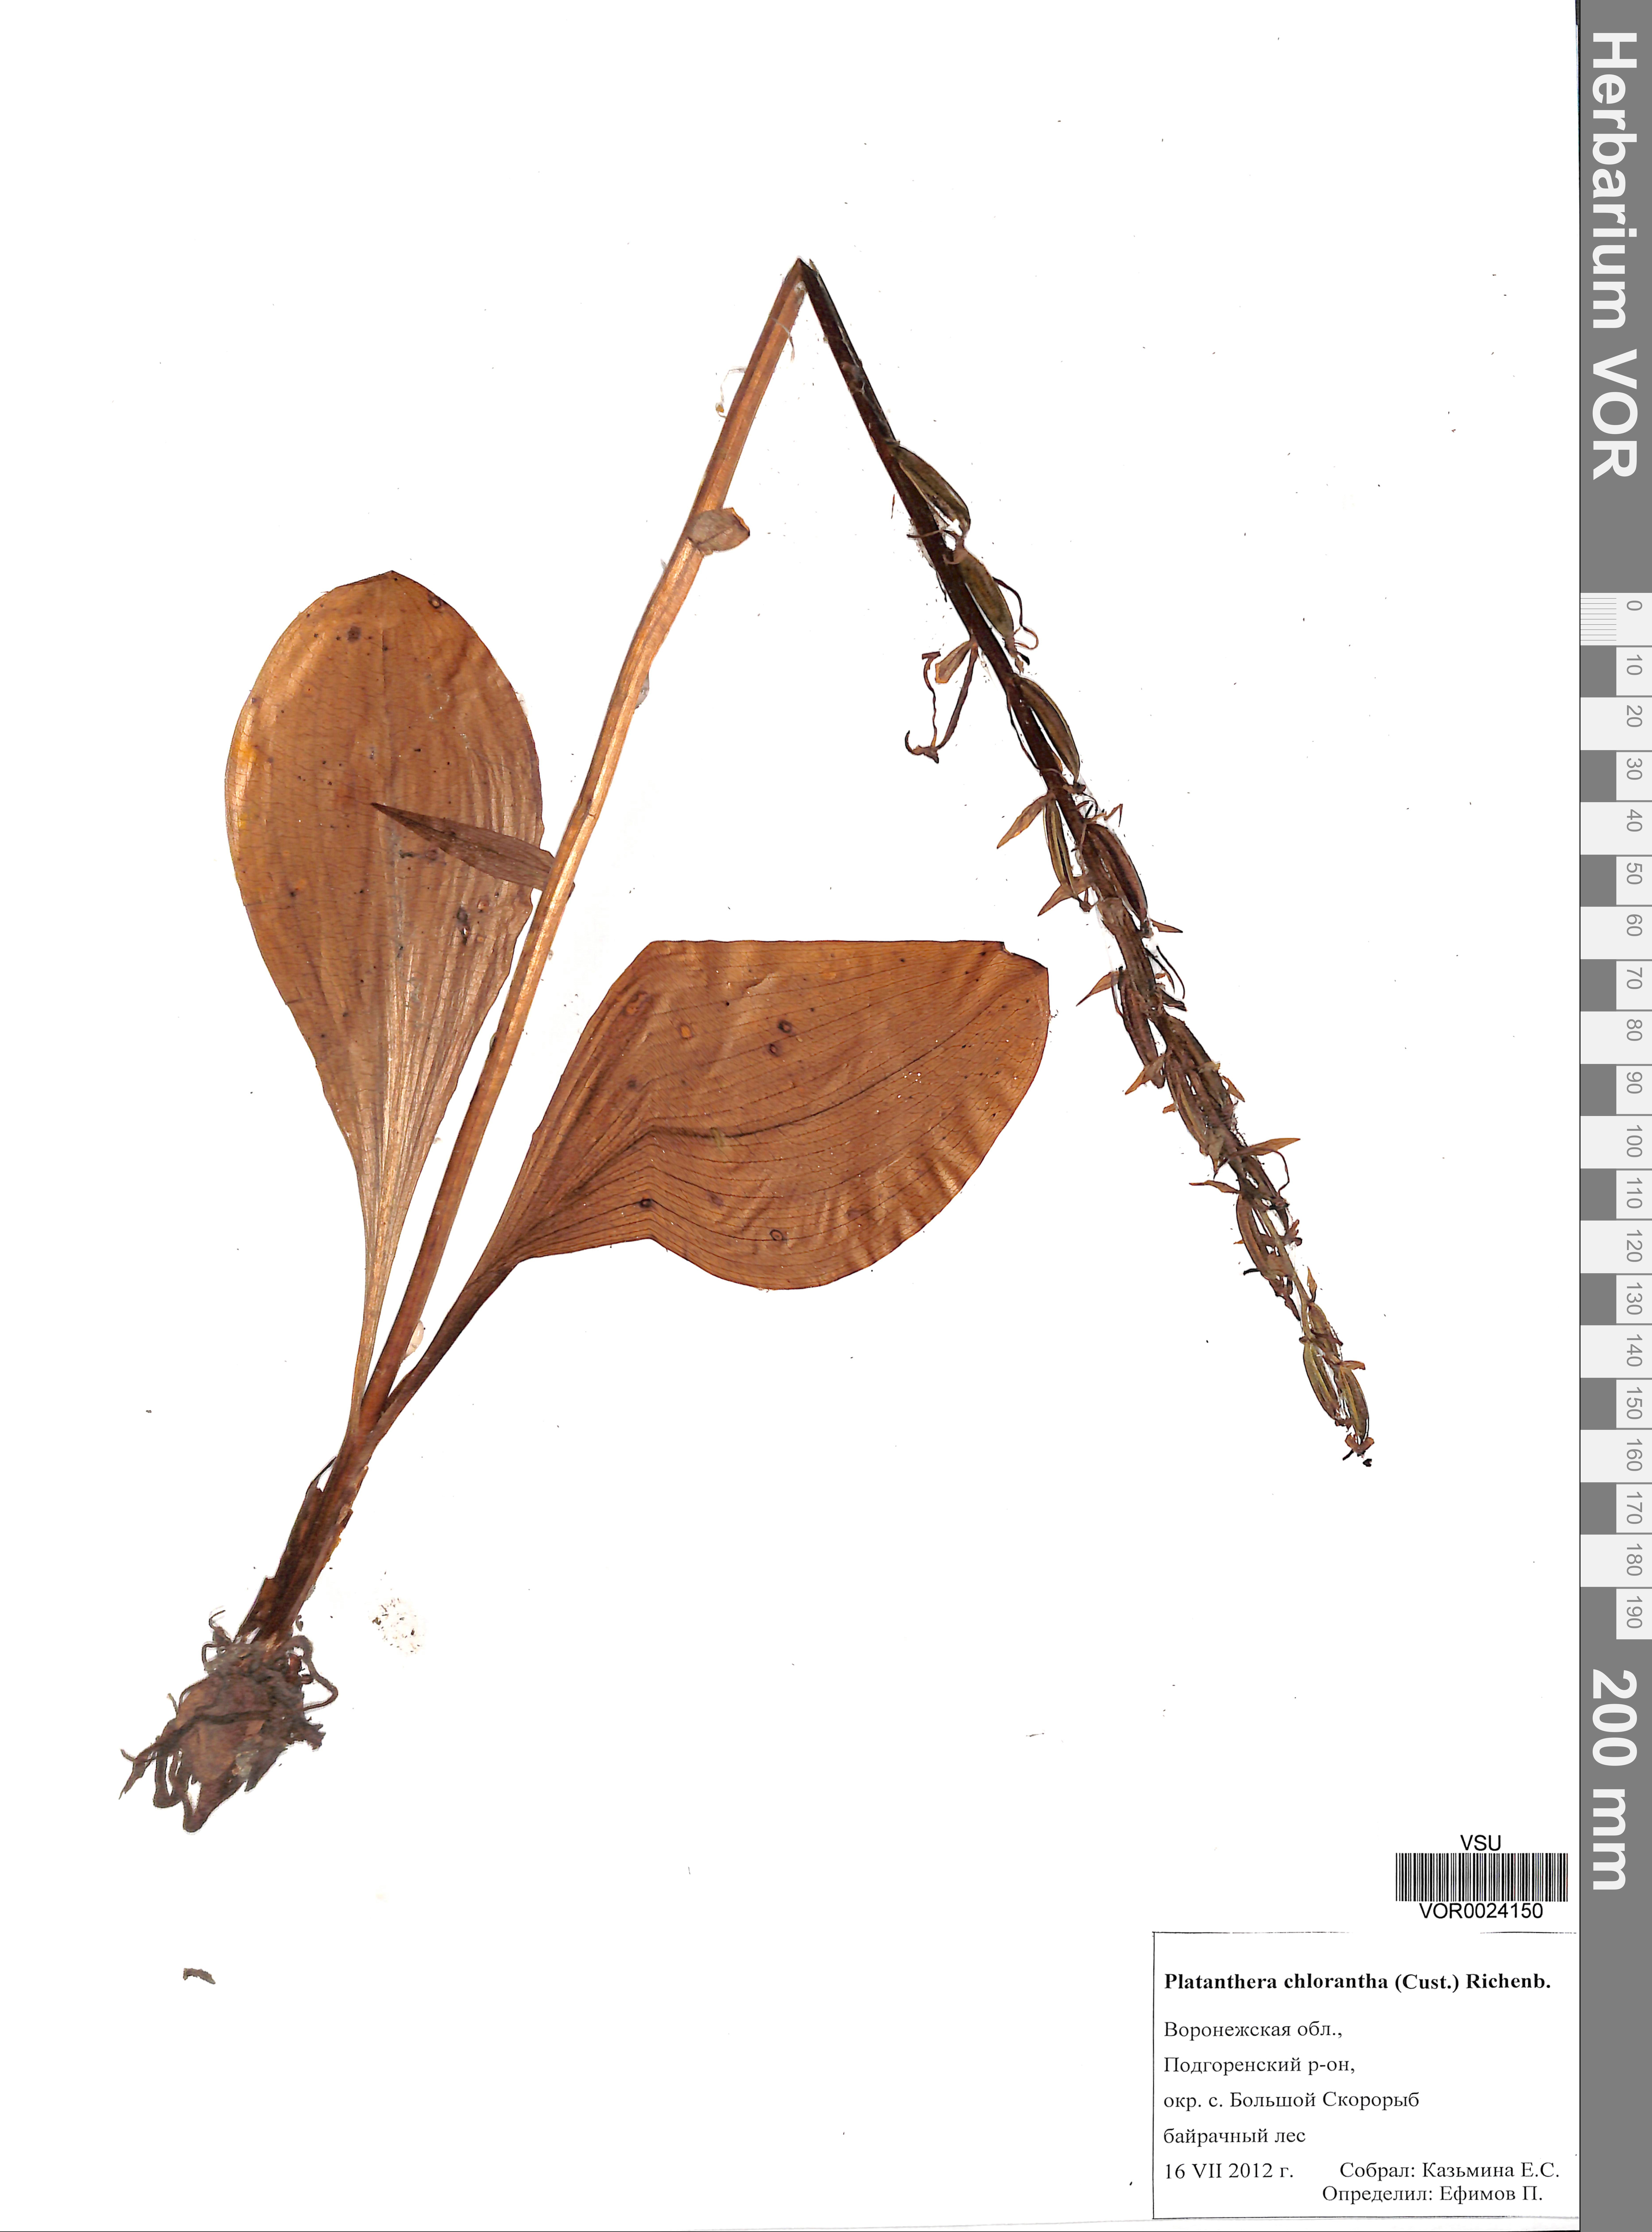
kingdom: Plantae
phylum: Tracheophyta
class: Liliopsida
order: Asparagales
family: Orchidaceae
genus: Platanthera
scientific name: Platanthera chlorantha
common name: Greater butterfly-orchid
